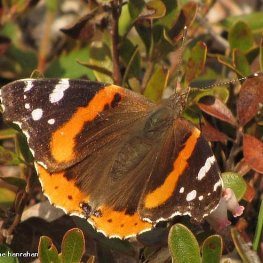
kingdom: Animalia
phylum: Arthropoda
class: Insecta
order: Lepidoptera
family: Nymphalidae
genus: Vanessa
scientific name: Vanessa atalanta
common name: Red Admiral
